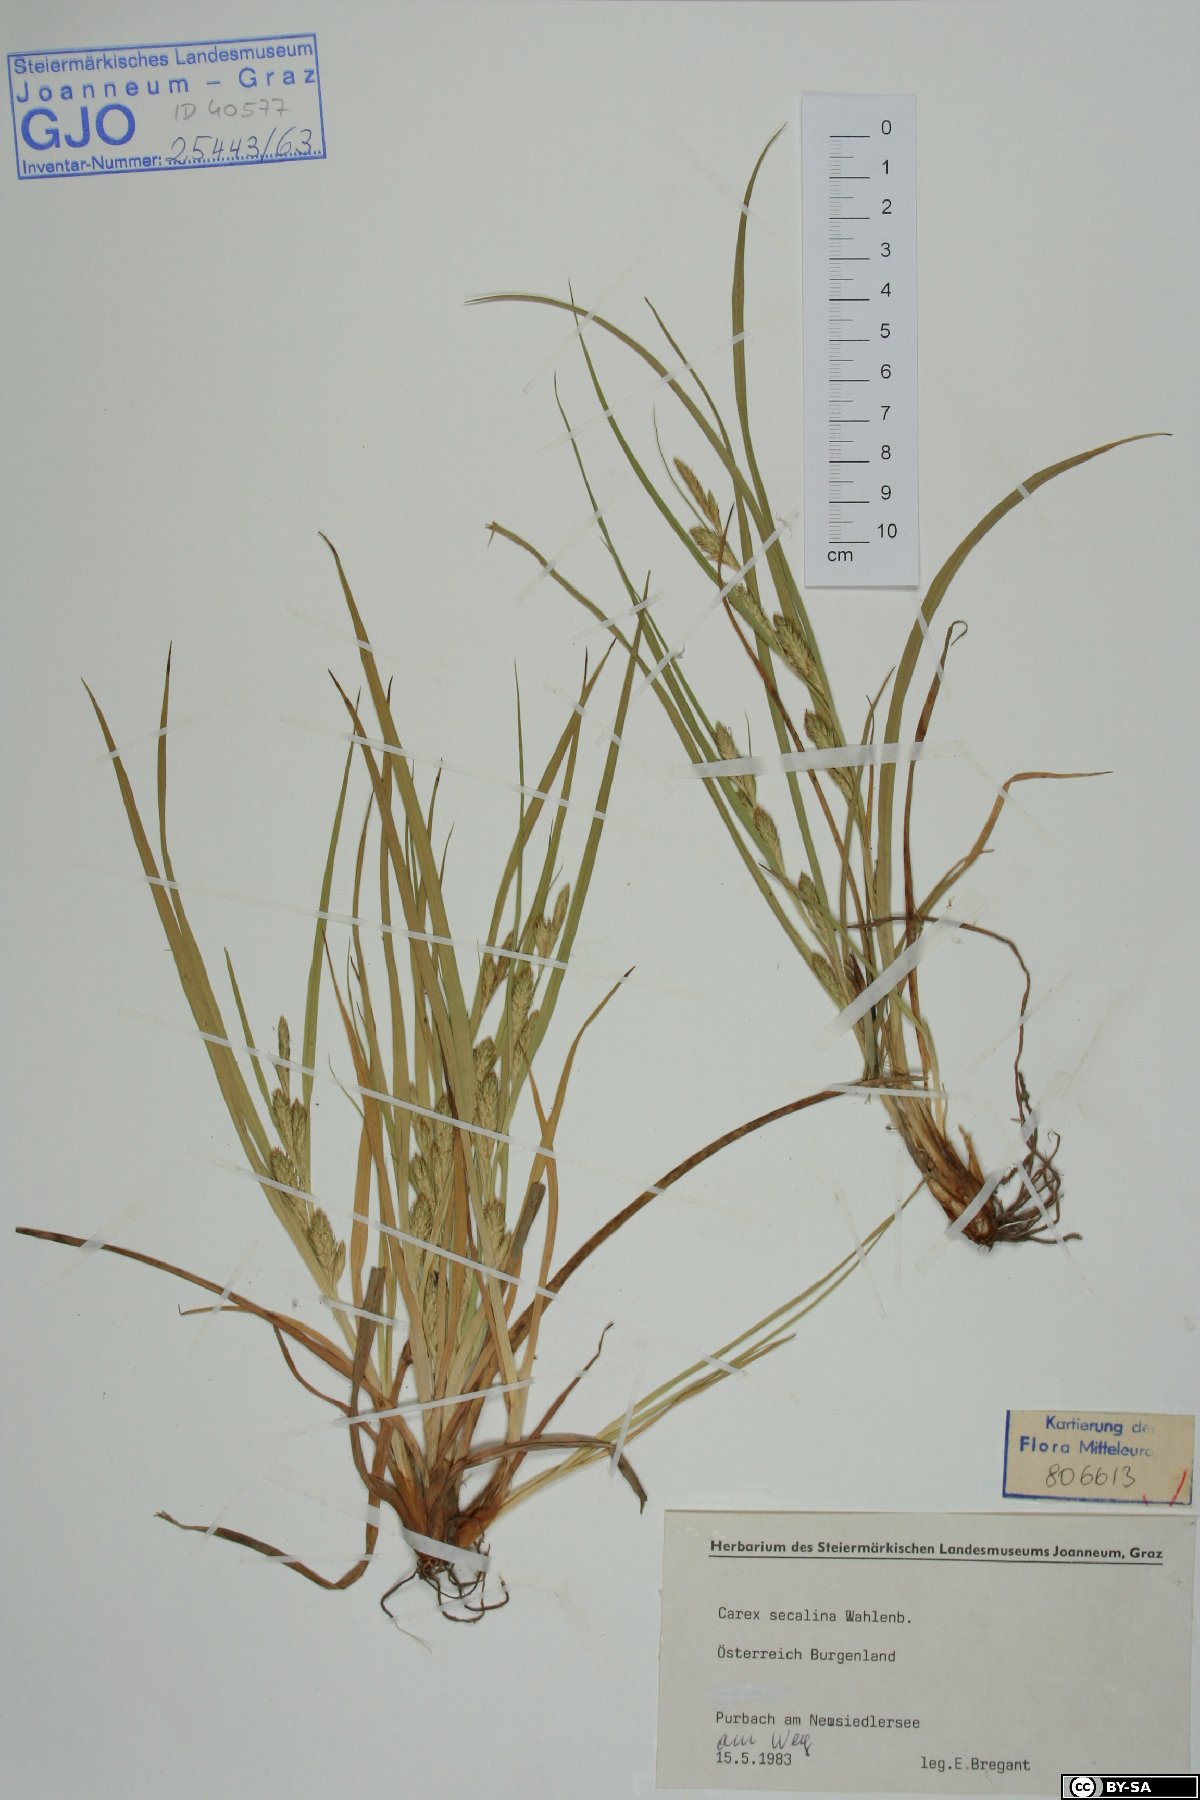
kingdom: Plantae
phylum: Tracheophyta
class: Liliopsida
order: Poales
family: Cyperaceae
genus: Carex
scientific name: Carex secalina
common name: Rye sedge
